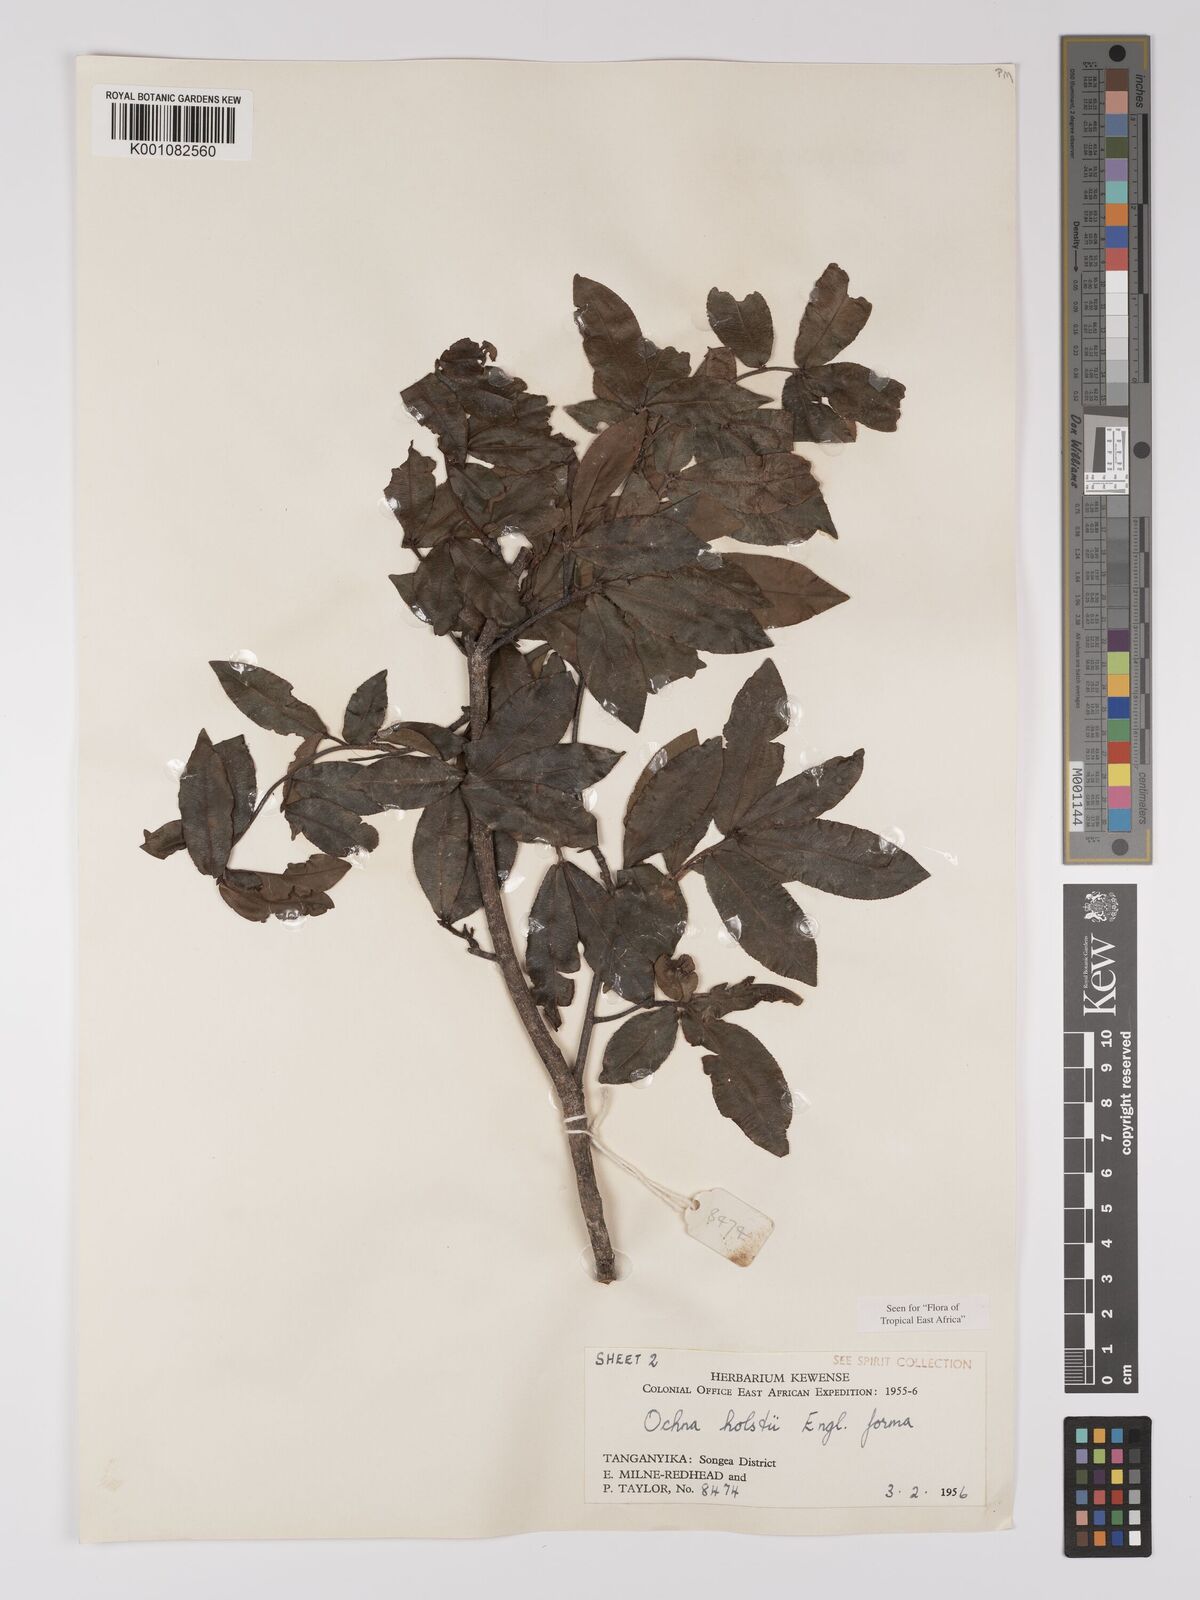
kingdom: Plantae
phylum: Tracheophyta
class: Magnoliopsida
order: Malpighiales
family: Ochnaceae
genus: Ochna
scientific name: Ochna holstii
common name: Red ironwood
